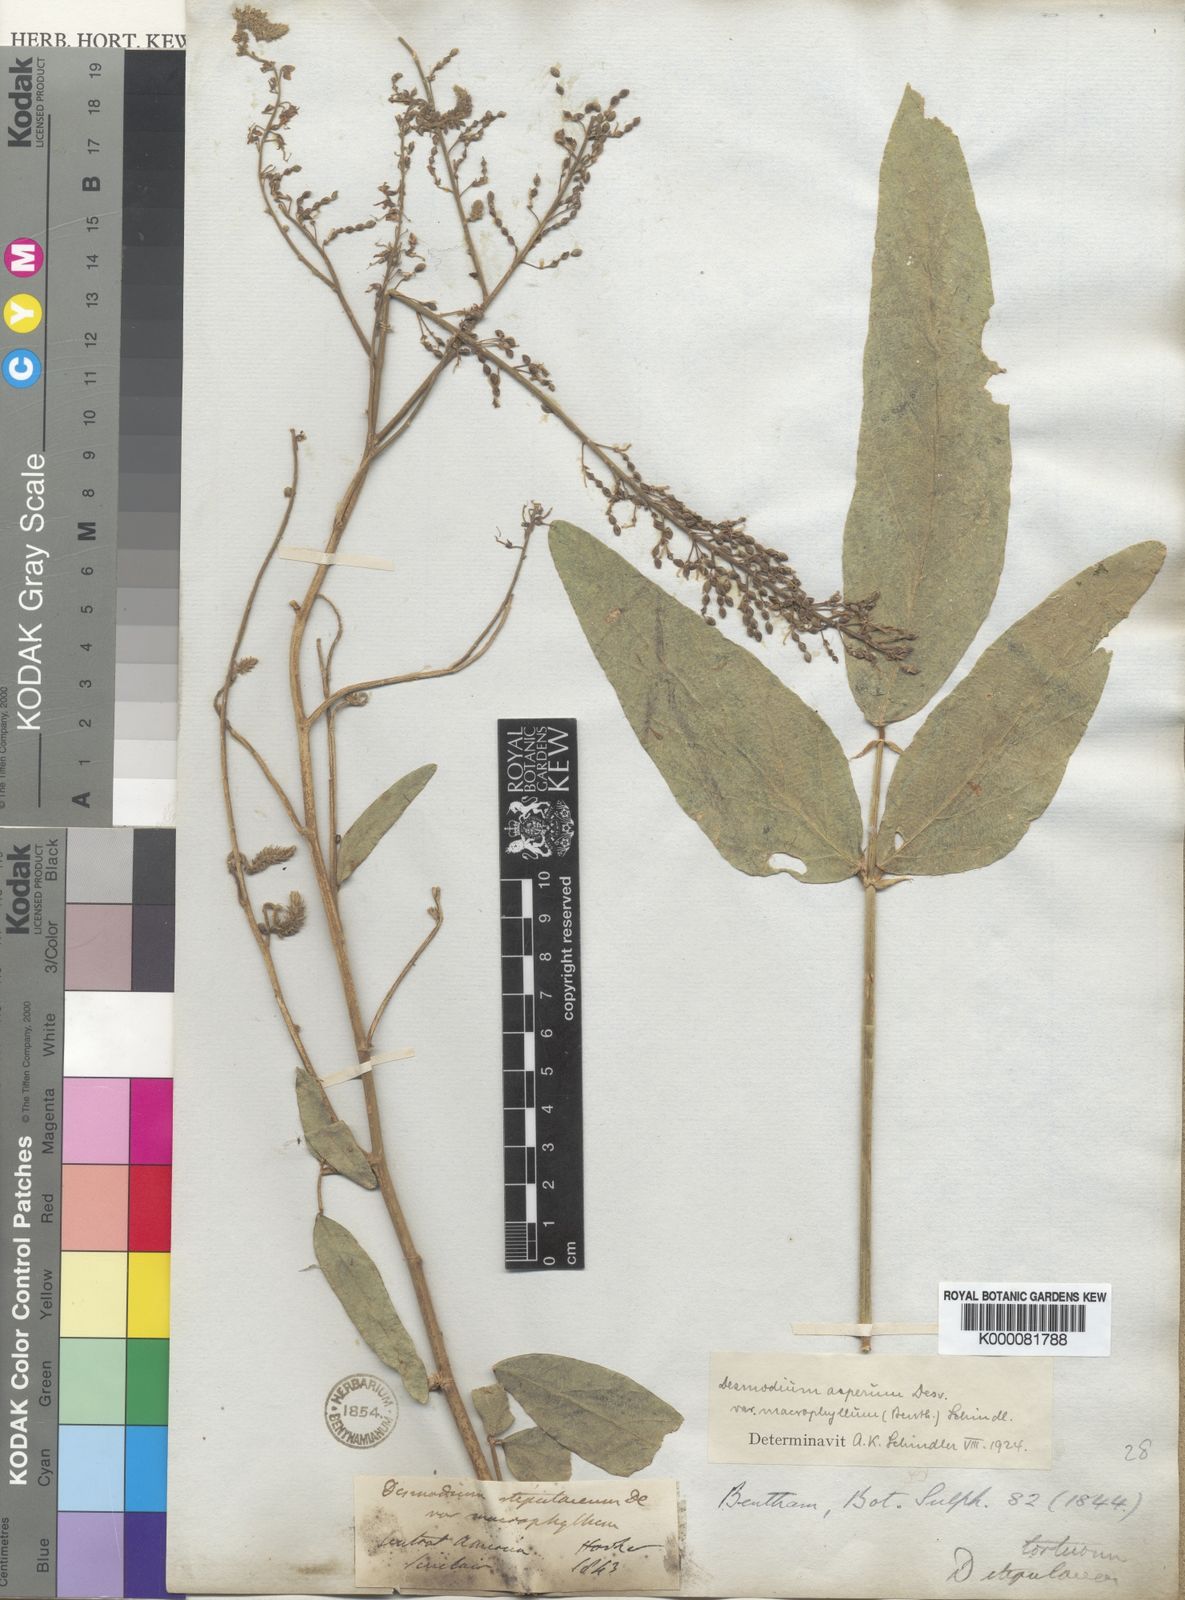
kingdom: Plantae
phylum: Tracheophyta
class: Magnoliopsida
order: Fabales
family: Fabaceae
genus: Desmodium
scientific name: Desmodium tortuosum
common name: Dixie ticktrefoil
